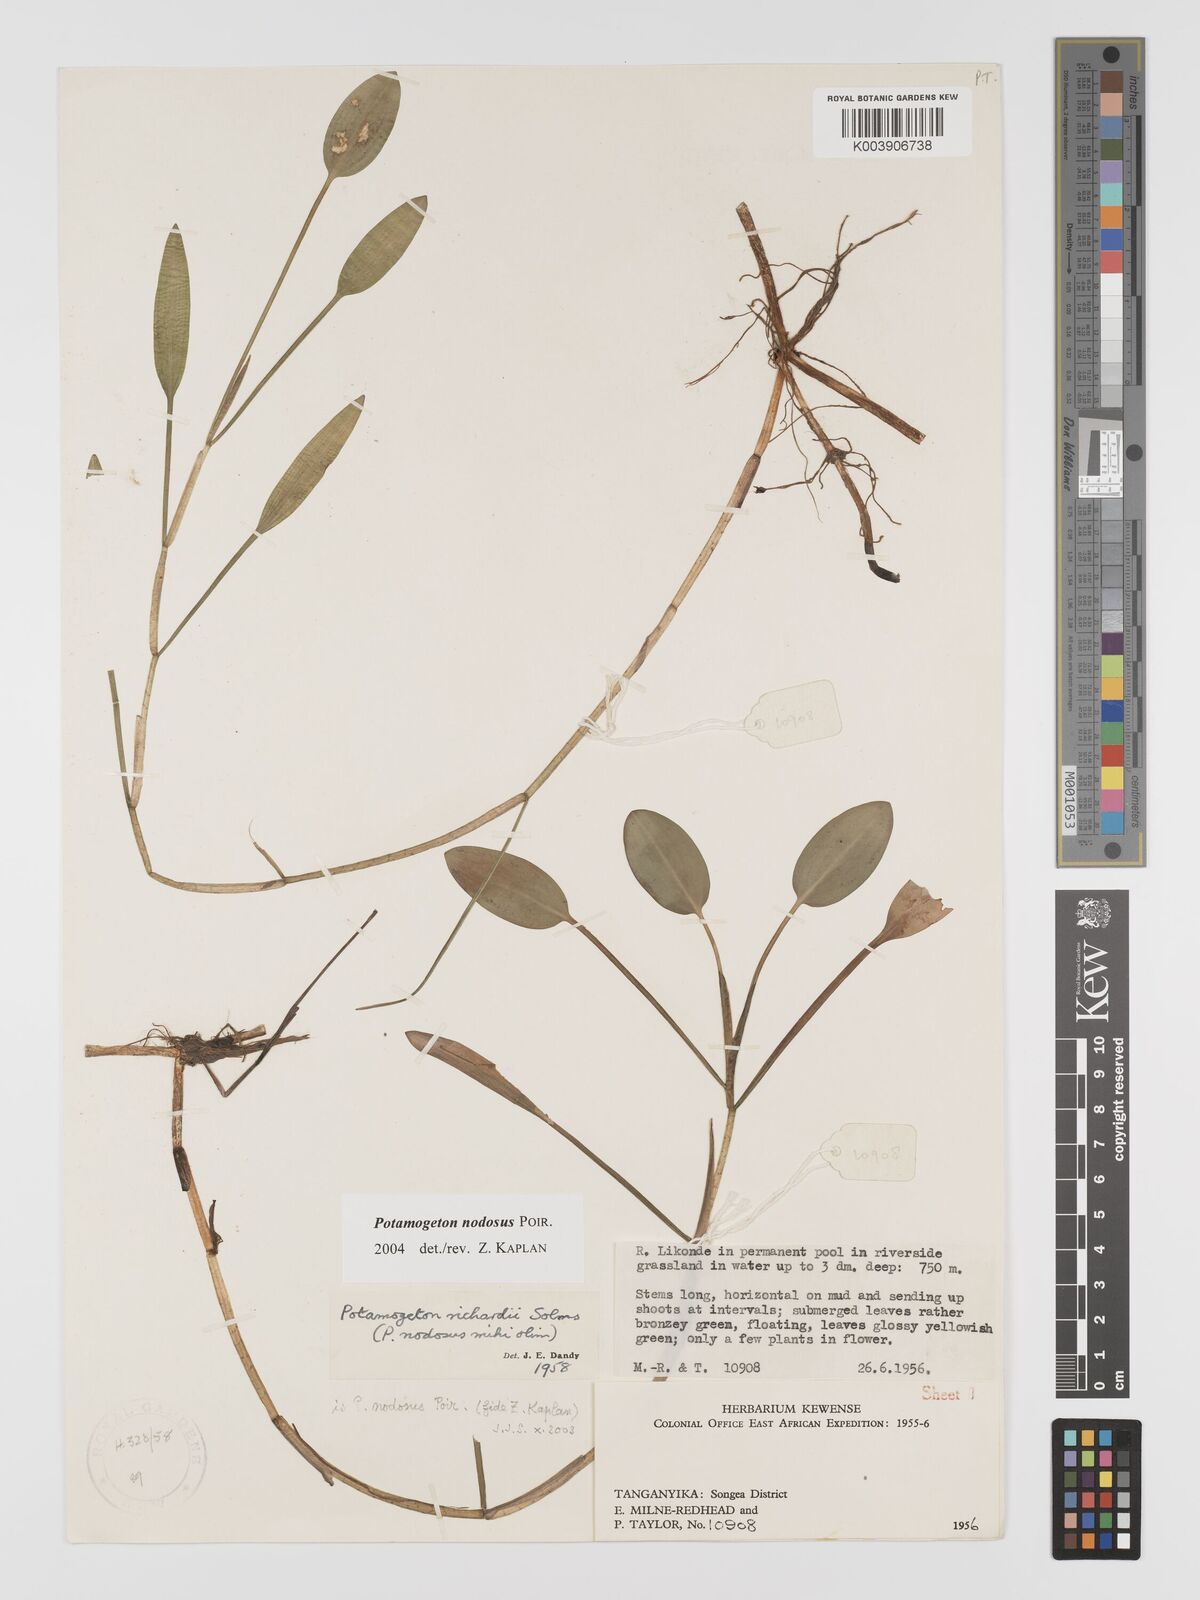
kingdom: Plantae
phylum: Tracheophyta
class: Liliopsida
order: Alismatales
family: Potamogetonaceae
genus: Potamogeton
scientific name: Potamogeton nodosus
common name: Loddon pondweed
